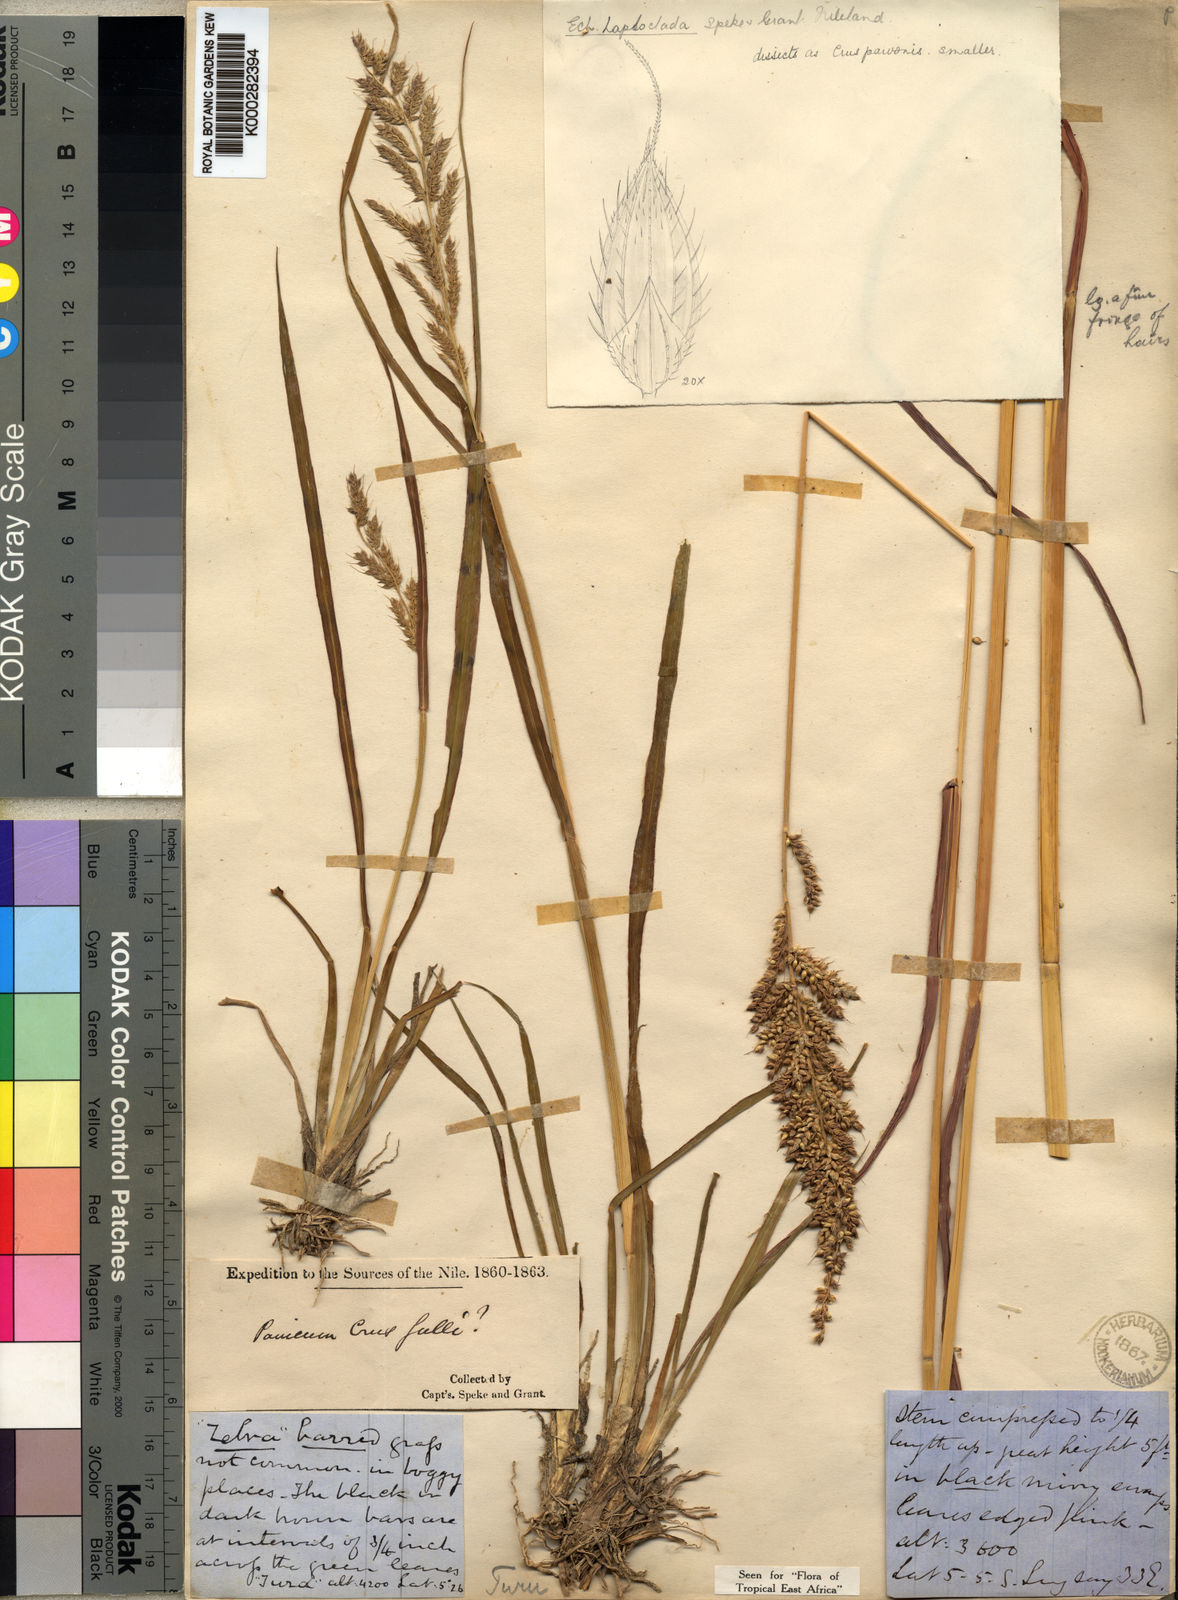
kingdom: Plantae
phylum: Tracheophyta
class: Liliopsida
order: Poales
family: Poaceae
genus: Echinochloa
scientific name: Echinochloa haploclada
